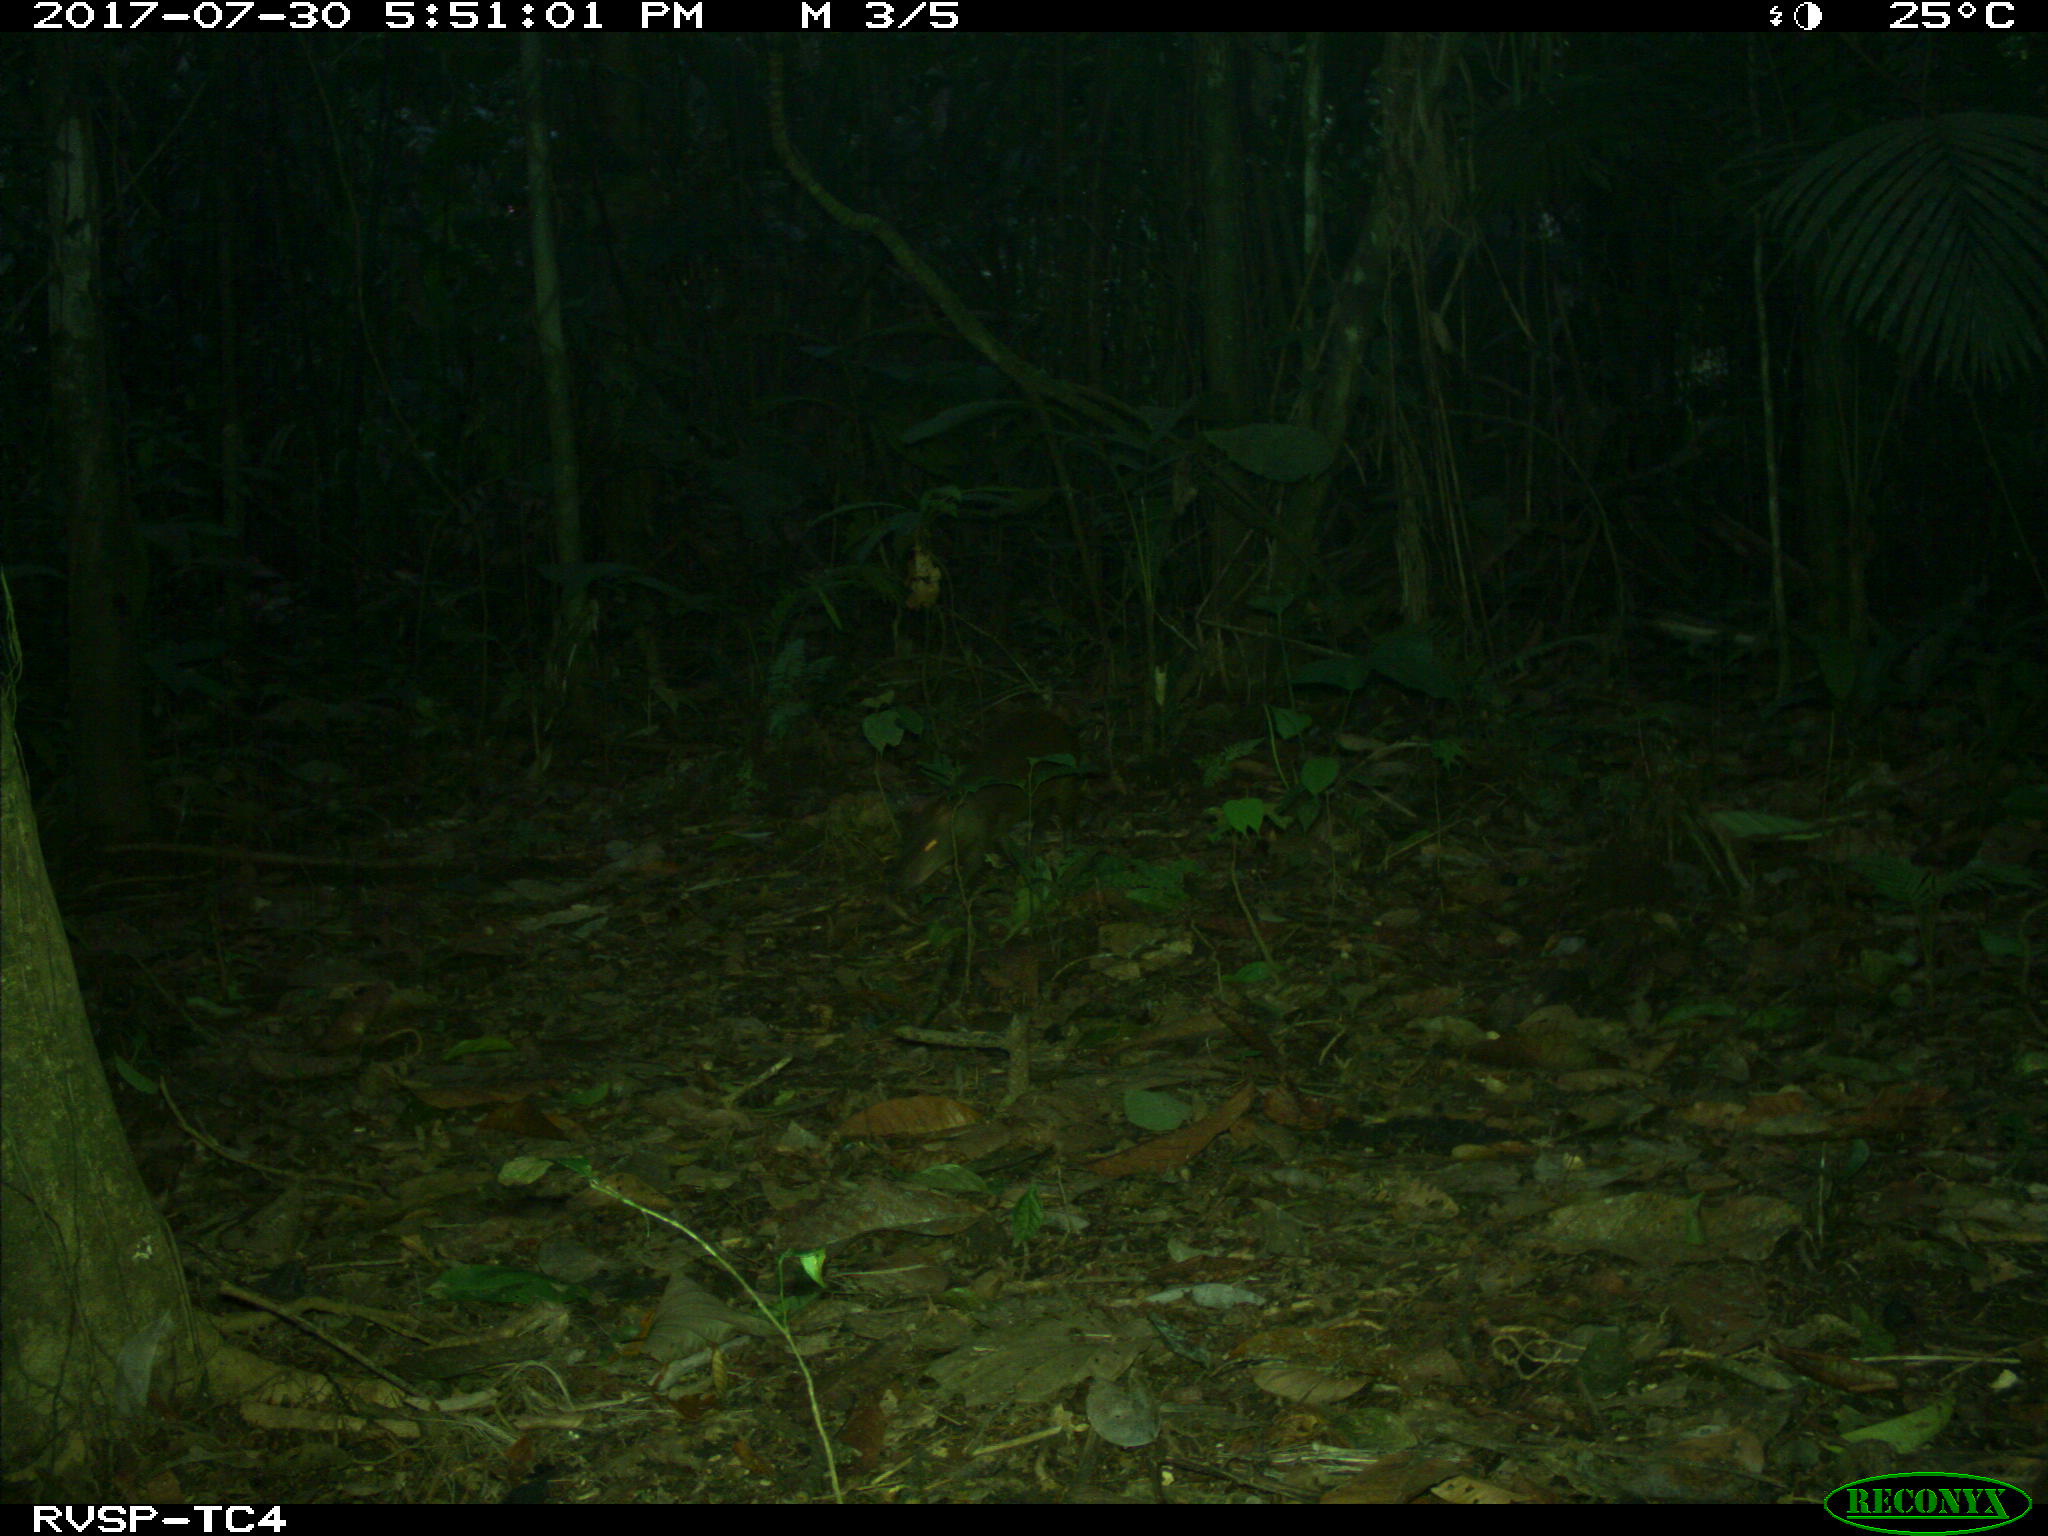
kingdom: Animalia
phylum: Chordata
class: Mammalia
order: Rodentia
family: Dasyproctidae
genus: Dasyprocta
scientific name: Dasyprocta punctata
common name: Central american agouti
